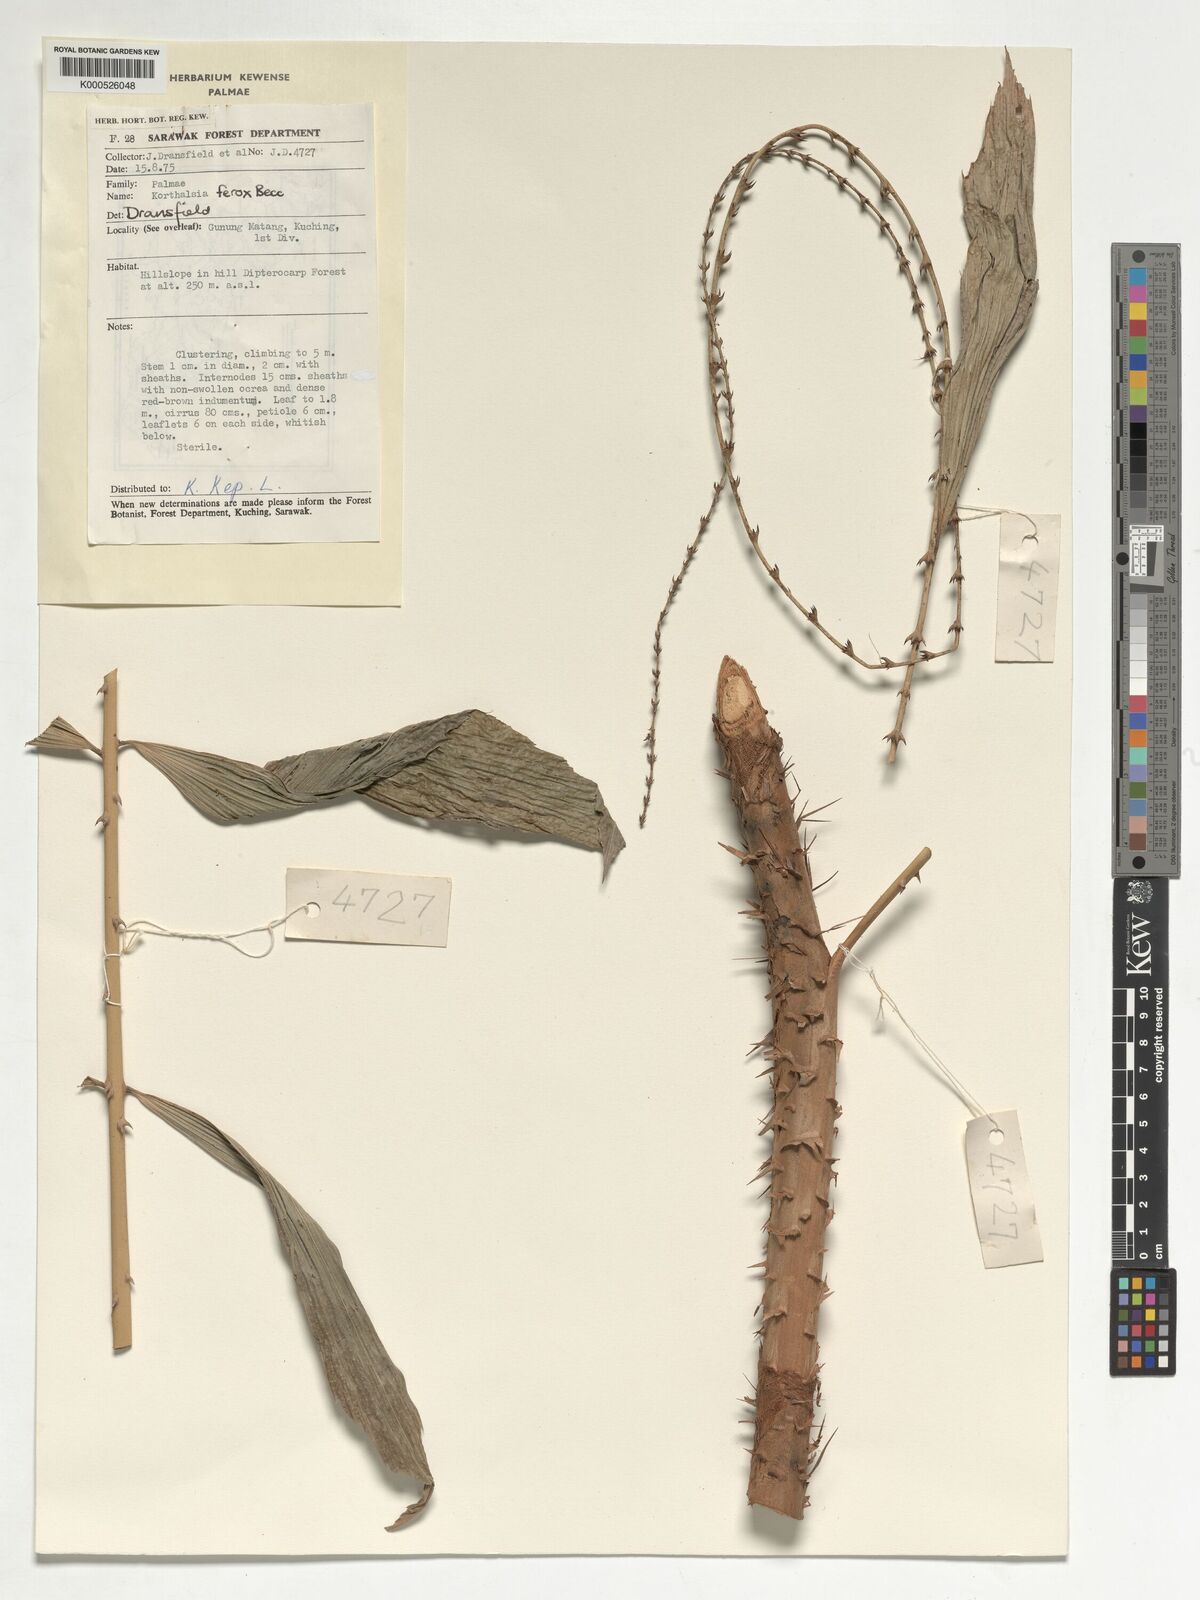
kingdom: Plantae
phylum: Tracheophyta
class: Liliopsida
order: Arecales
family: Arecaceae
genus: Korthalsia
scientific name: Korthalsia ferox
